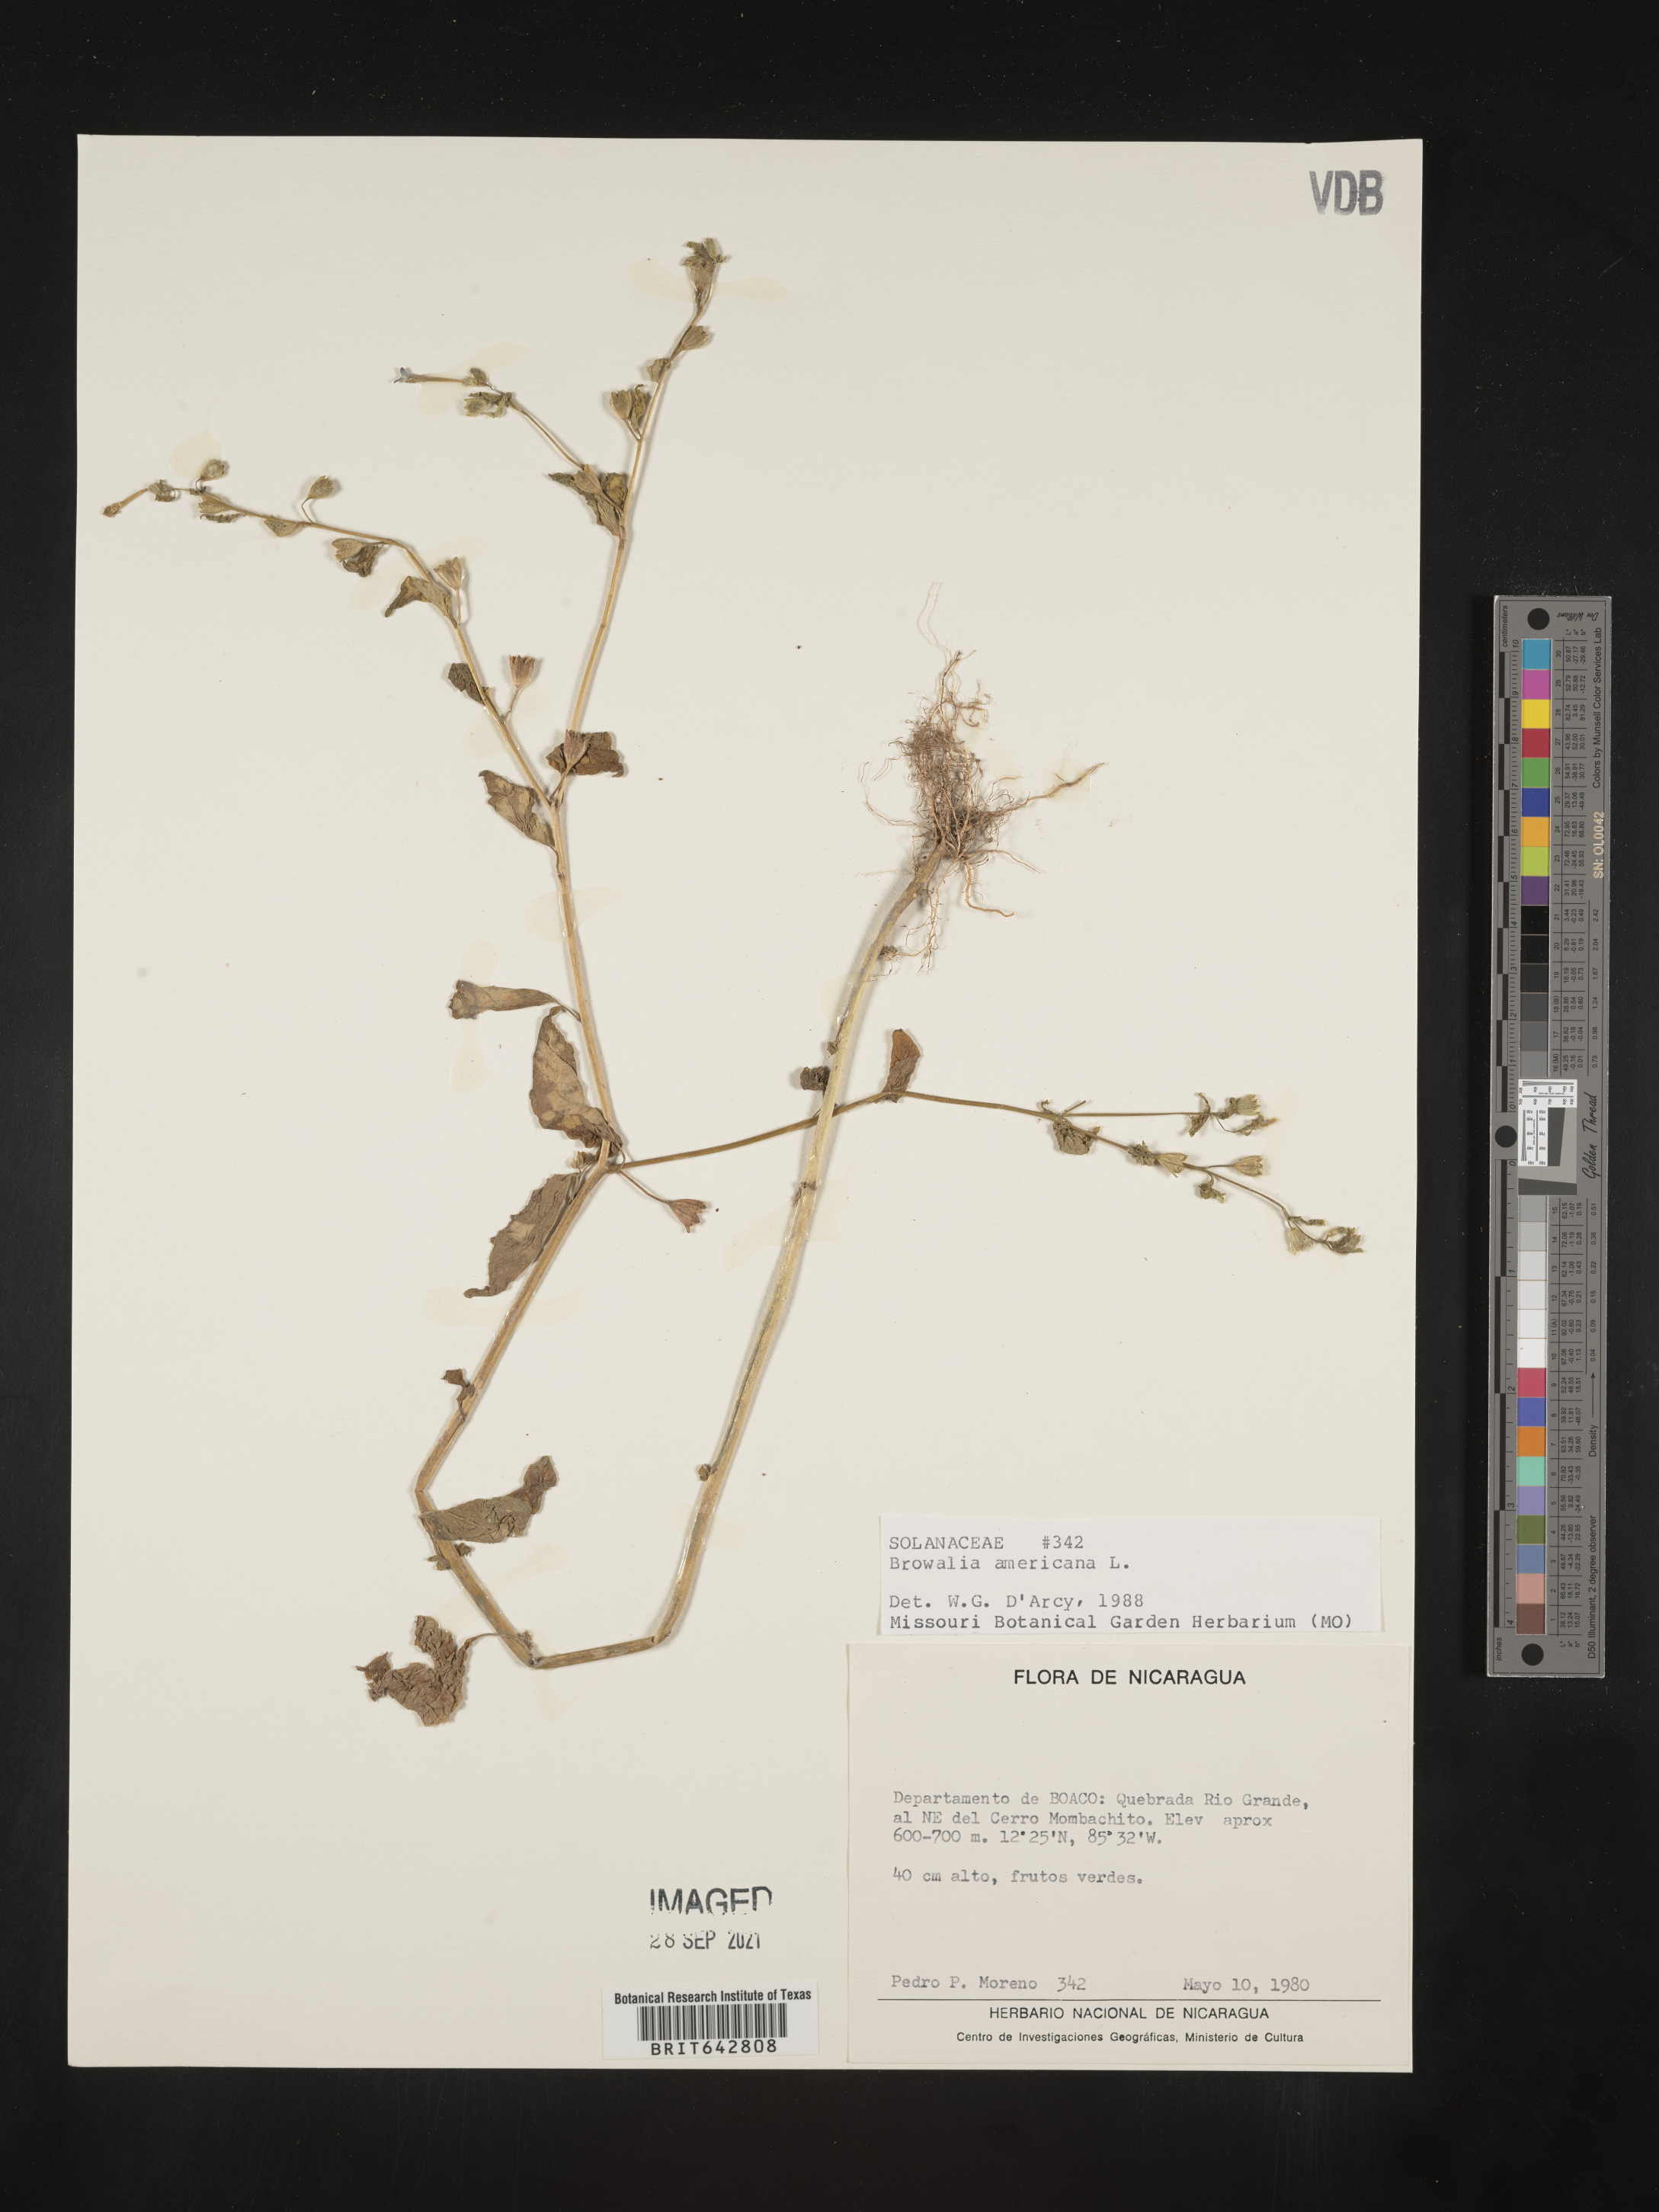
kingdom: Plantae
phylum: Tracheophyta
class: Magnoliopsida
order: Solanales
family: Solanaceae
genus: Browallia
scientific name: Browallia americana
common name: Jamaican forget-me-not
